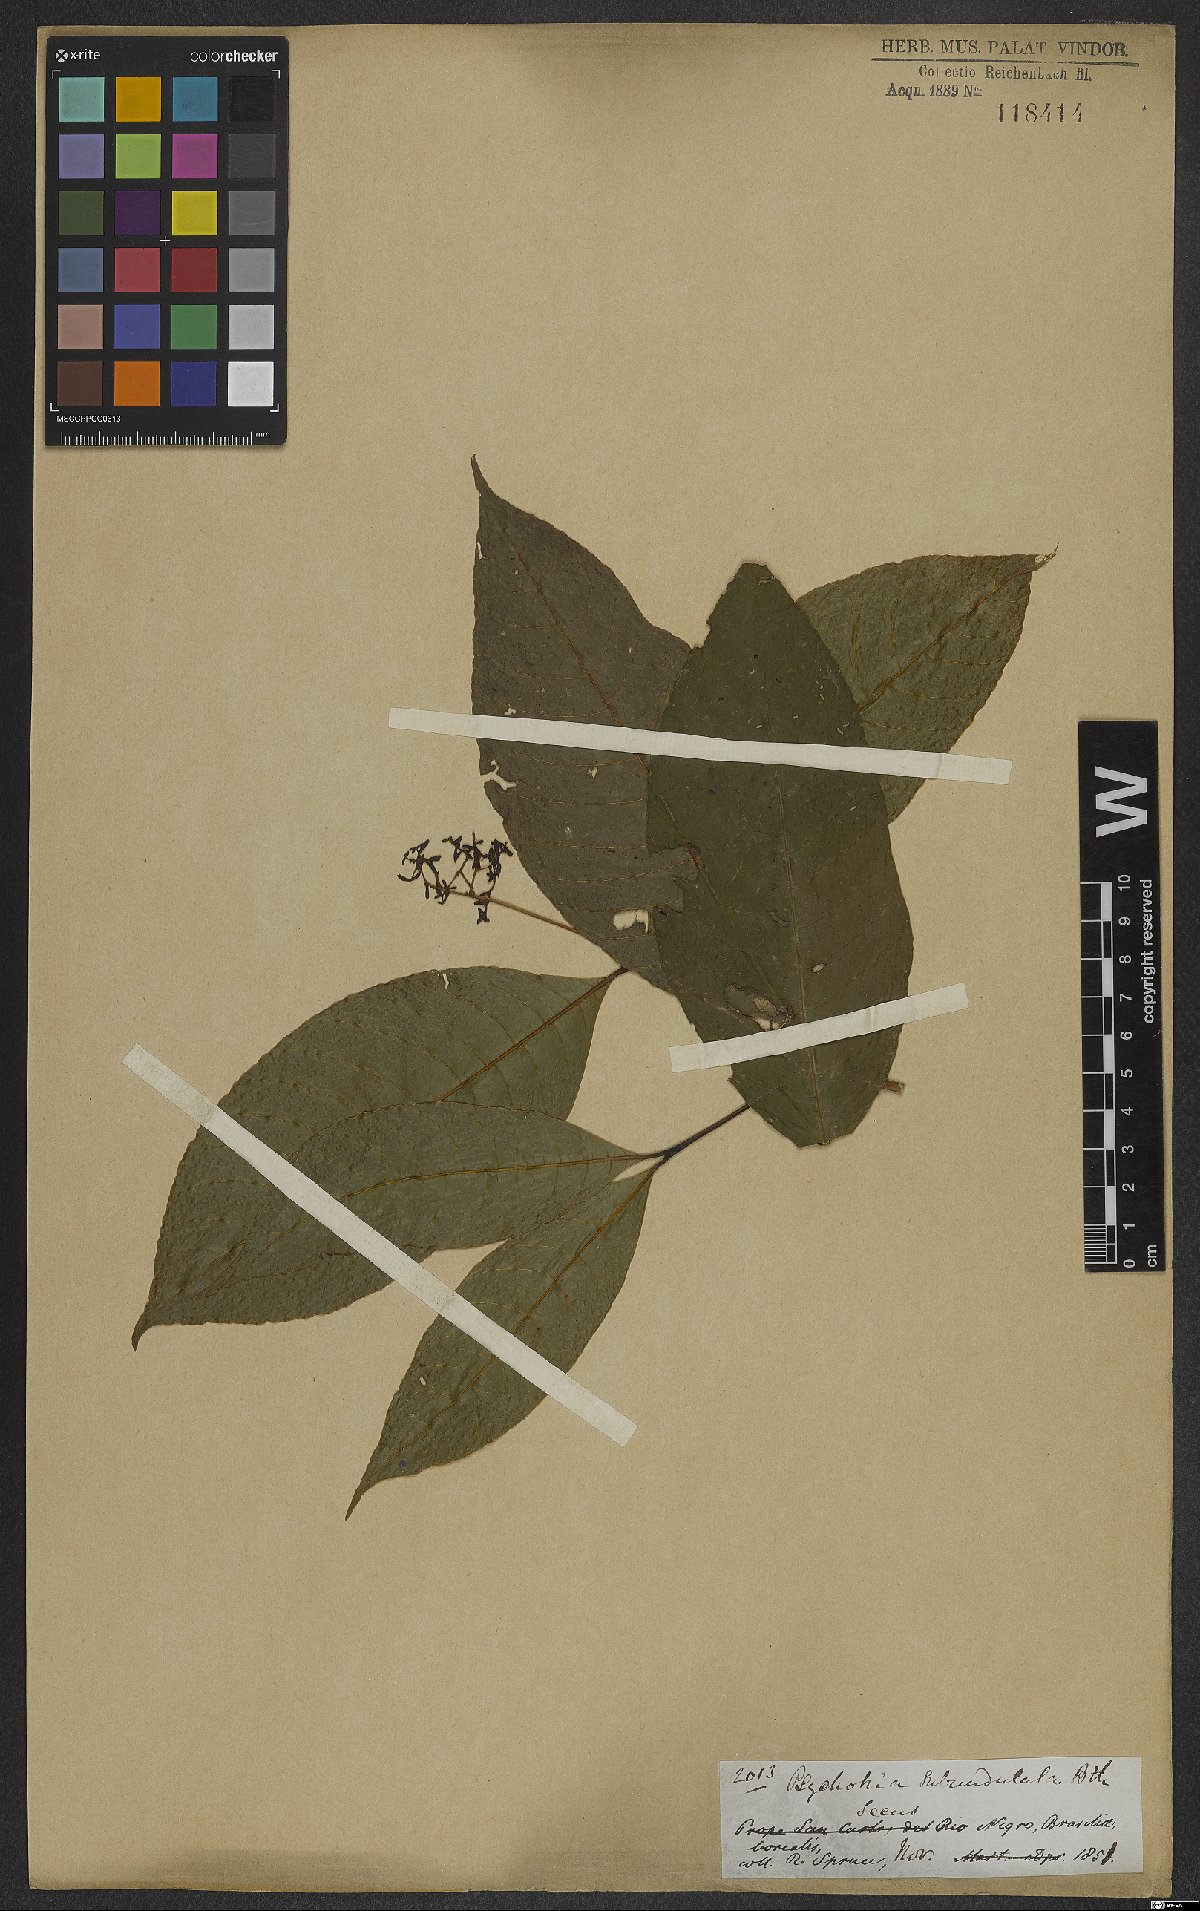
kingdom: Plantae
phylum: Tracheophyta
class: Magnoliopsida
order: Gentianales
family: Rubiaceae
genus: Palicourea
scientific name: Palicourea subundulata
